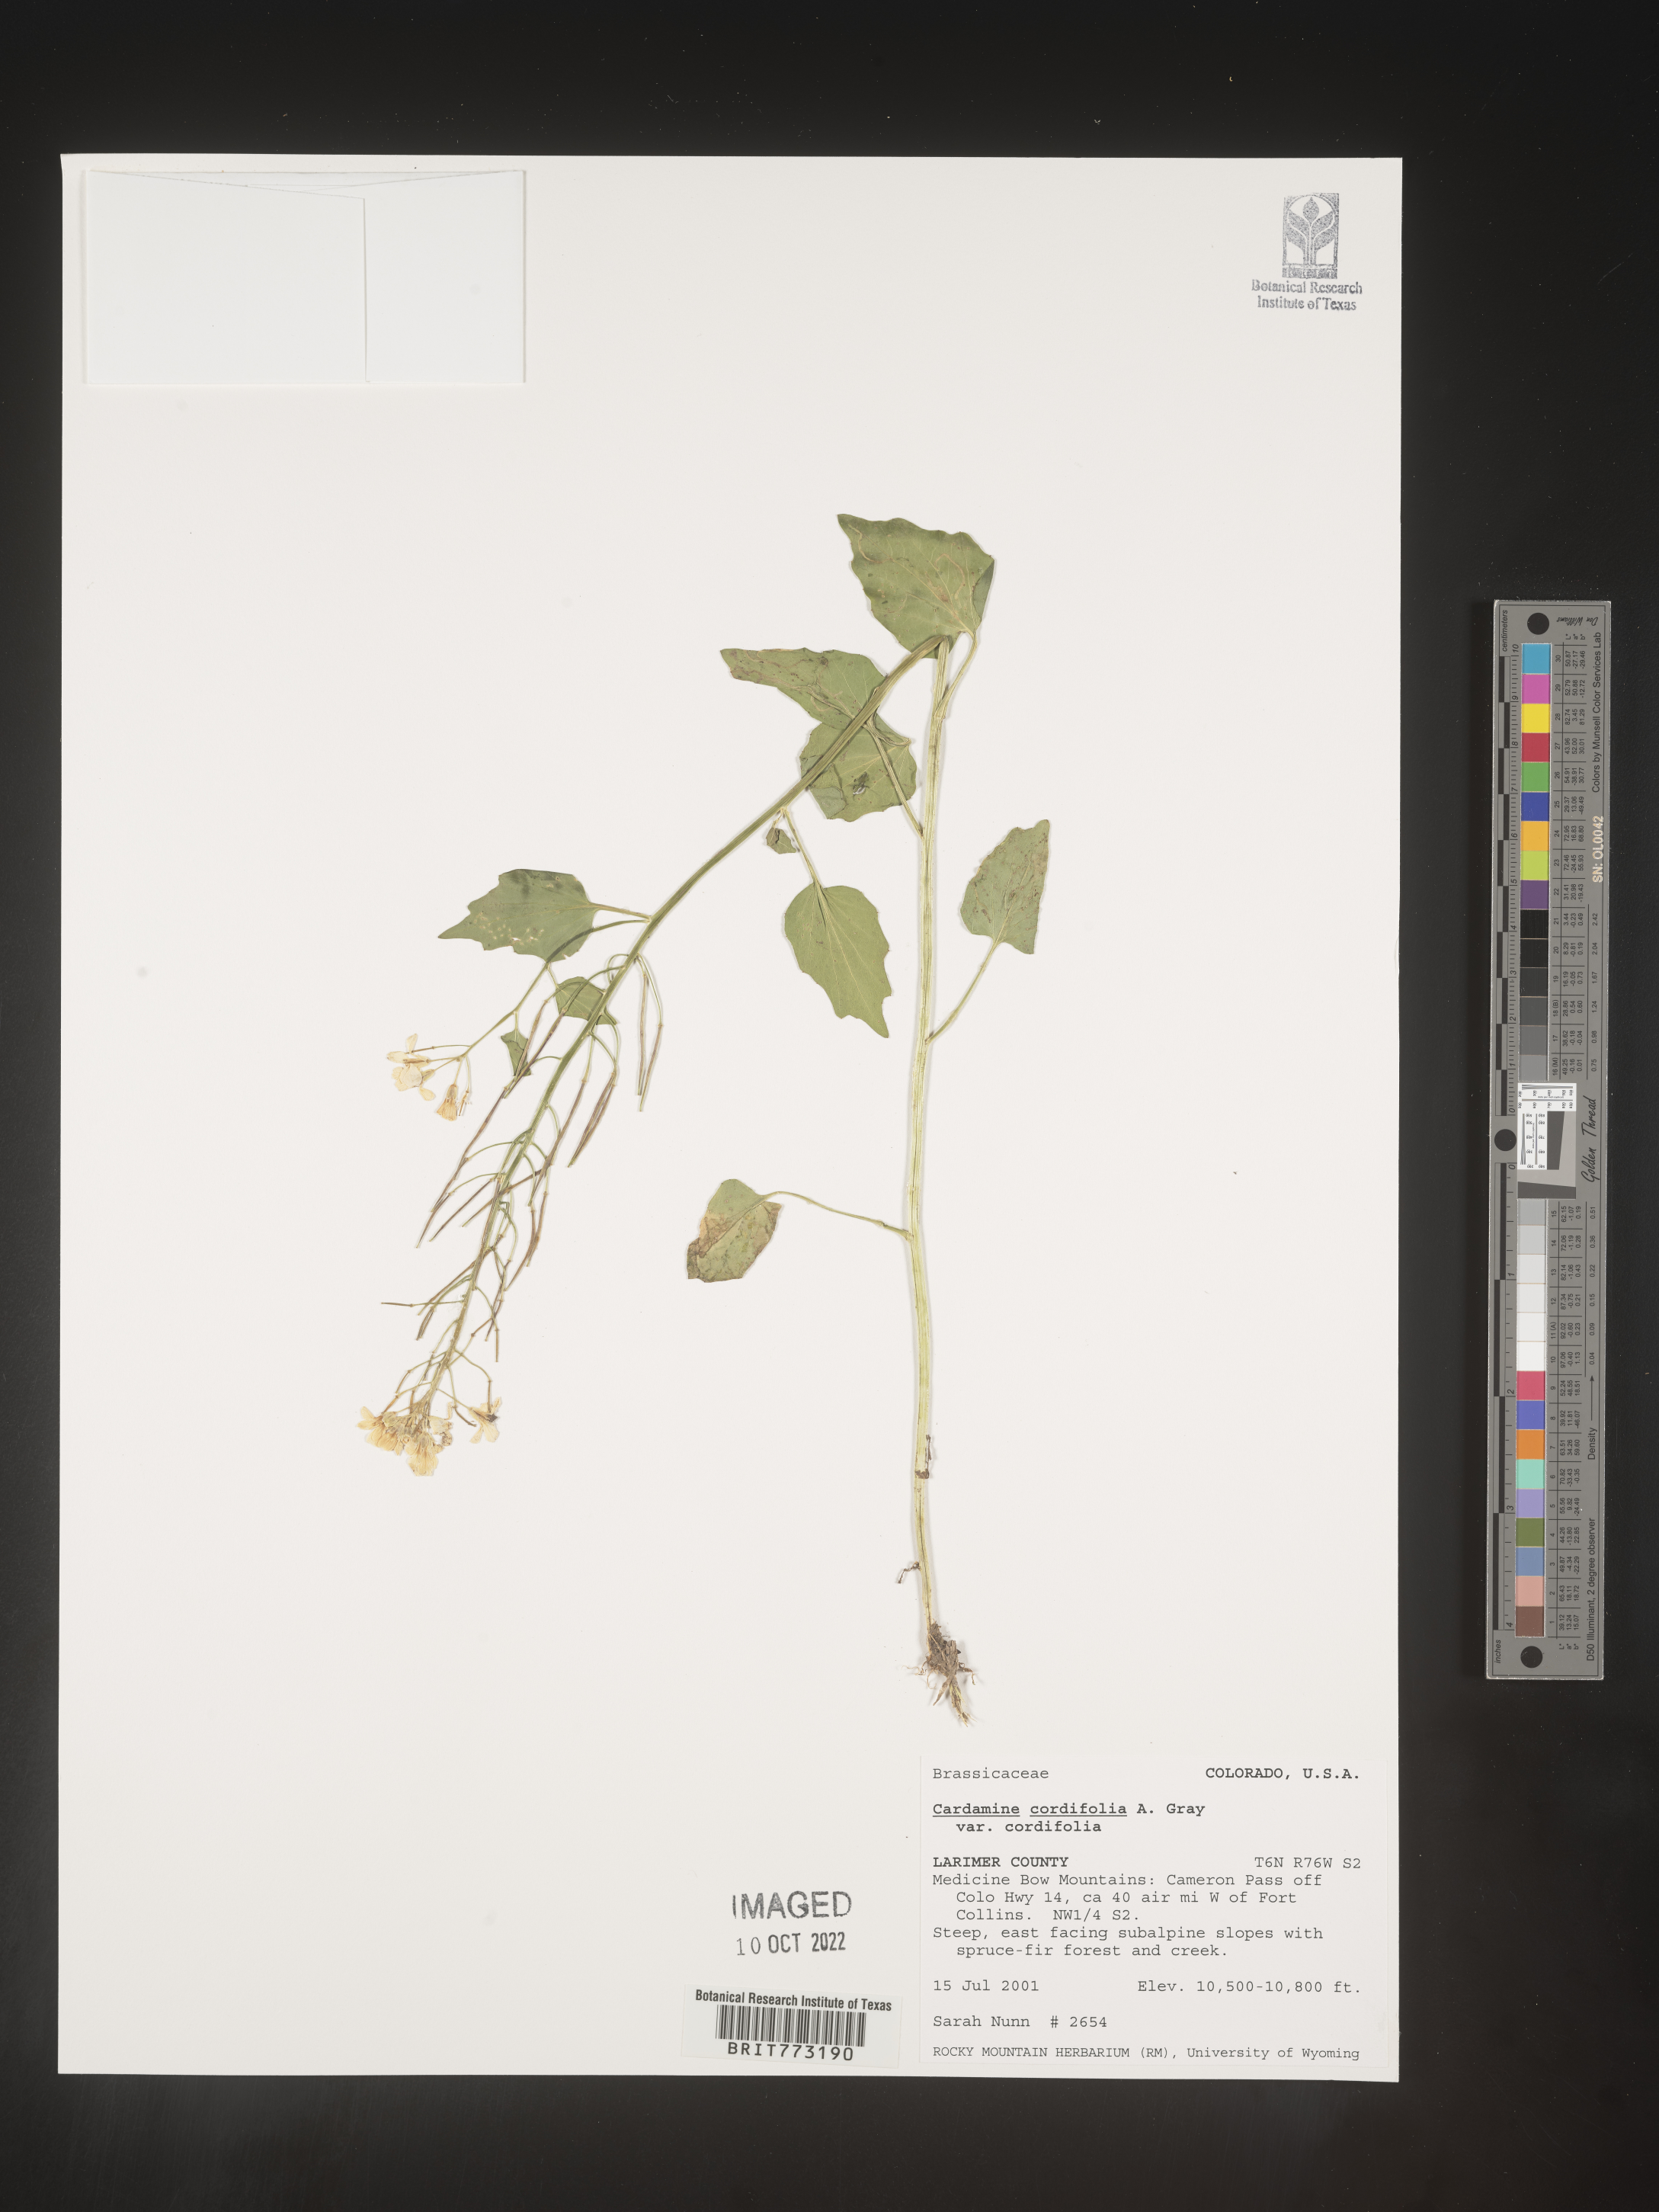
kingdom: Plantae
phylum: Tracheophyta
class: Magnoliopsida
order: Brassicales
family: Brassicaceae
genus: Cardamine
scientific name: Cardamine
